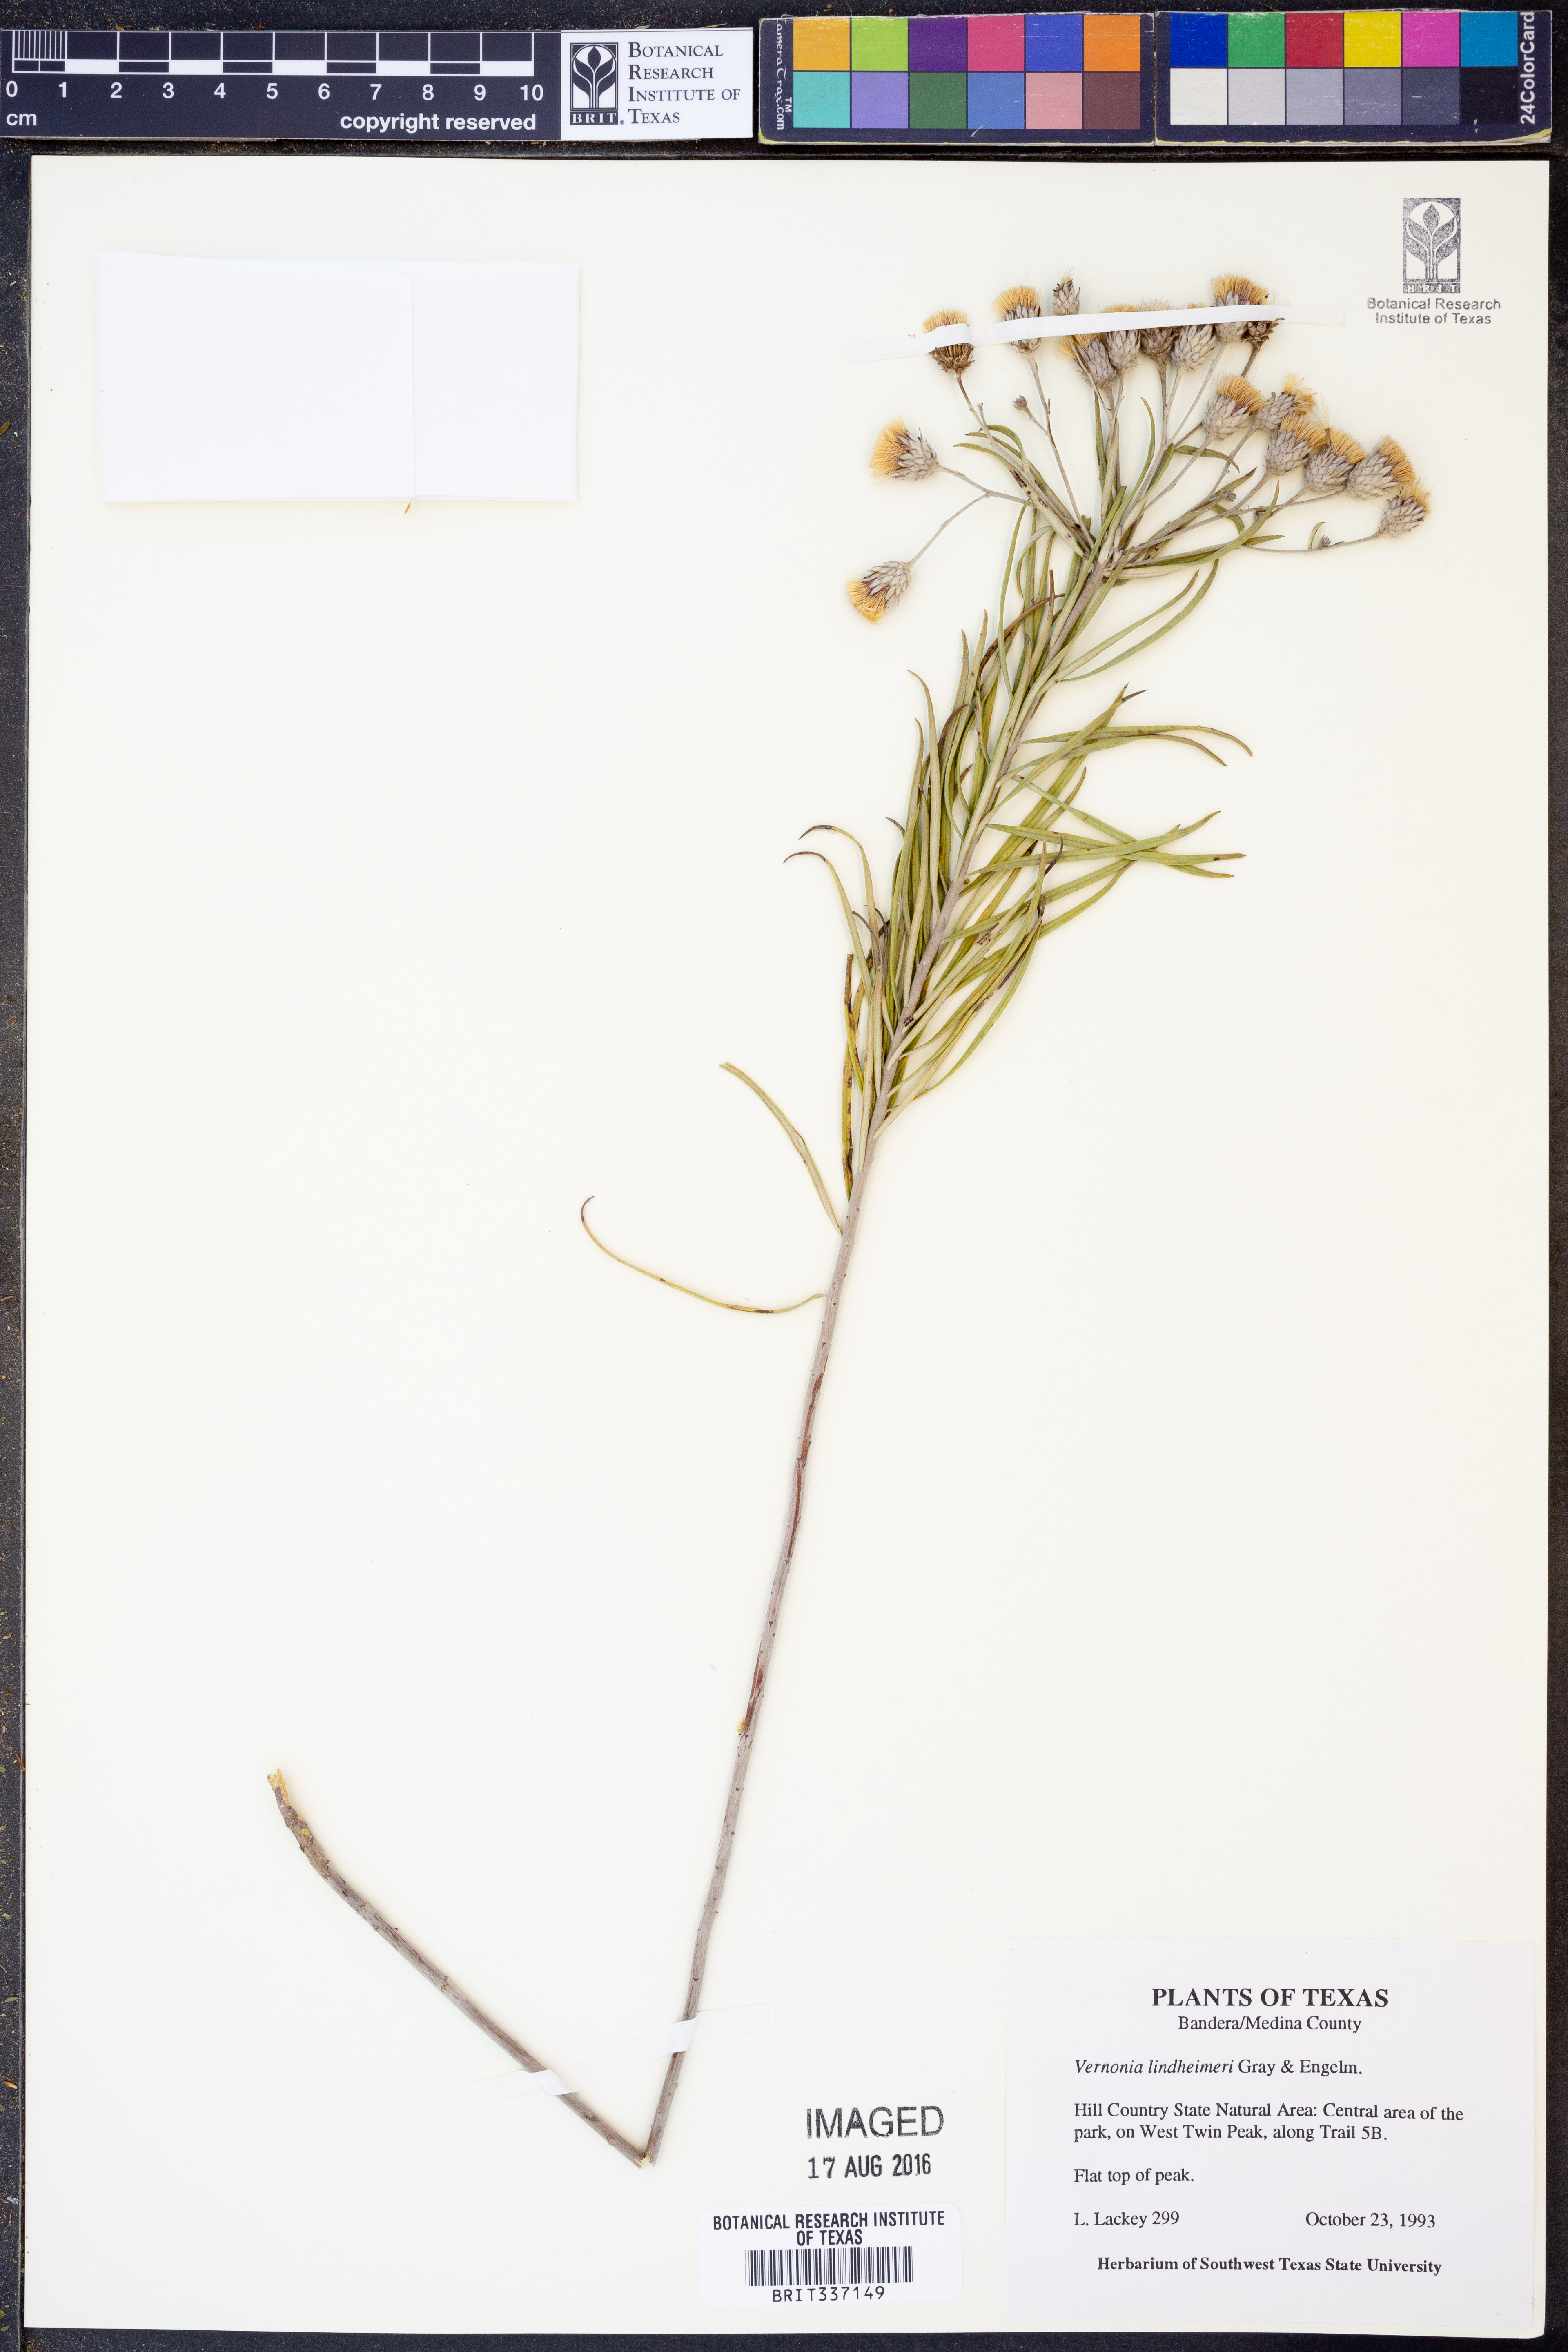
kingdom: Plantae
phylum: Tracheophyta
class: Magnoliopsida
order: Asterales
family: Asteraceae
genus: Vernonia
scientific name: Vernonia lindheimeri
